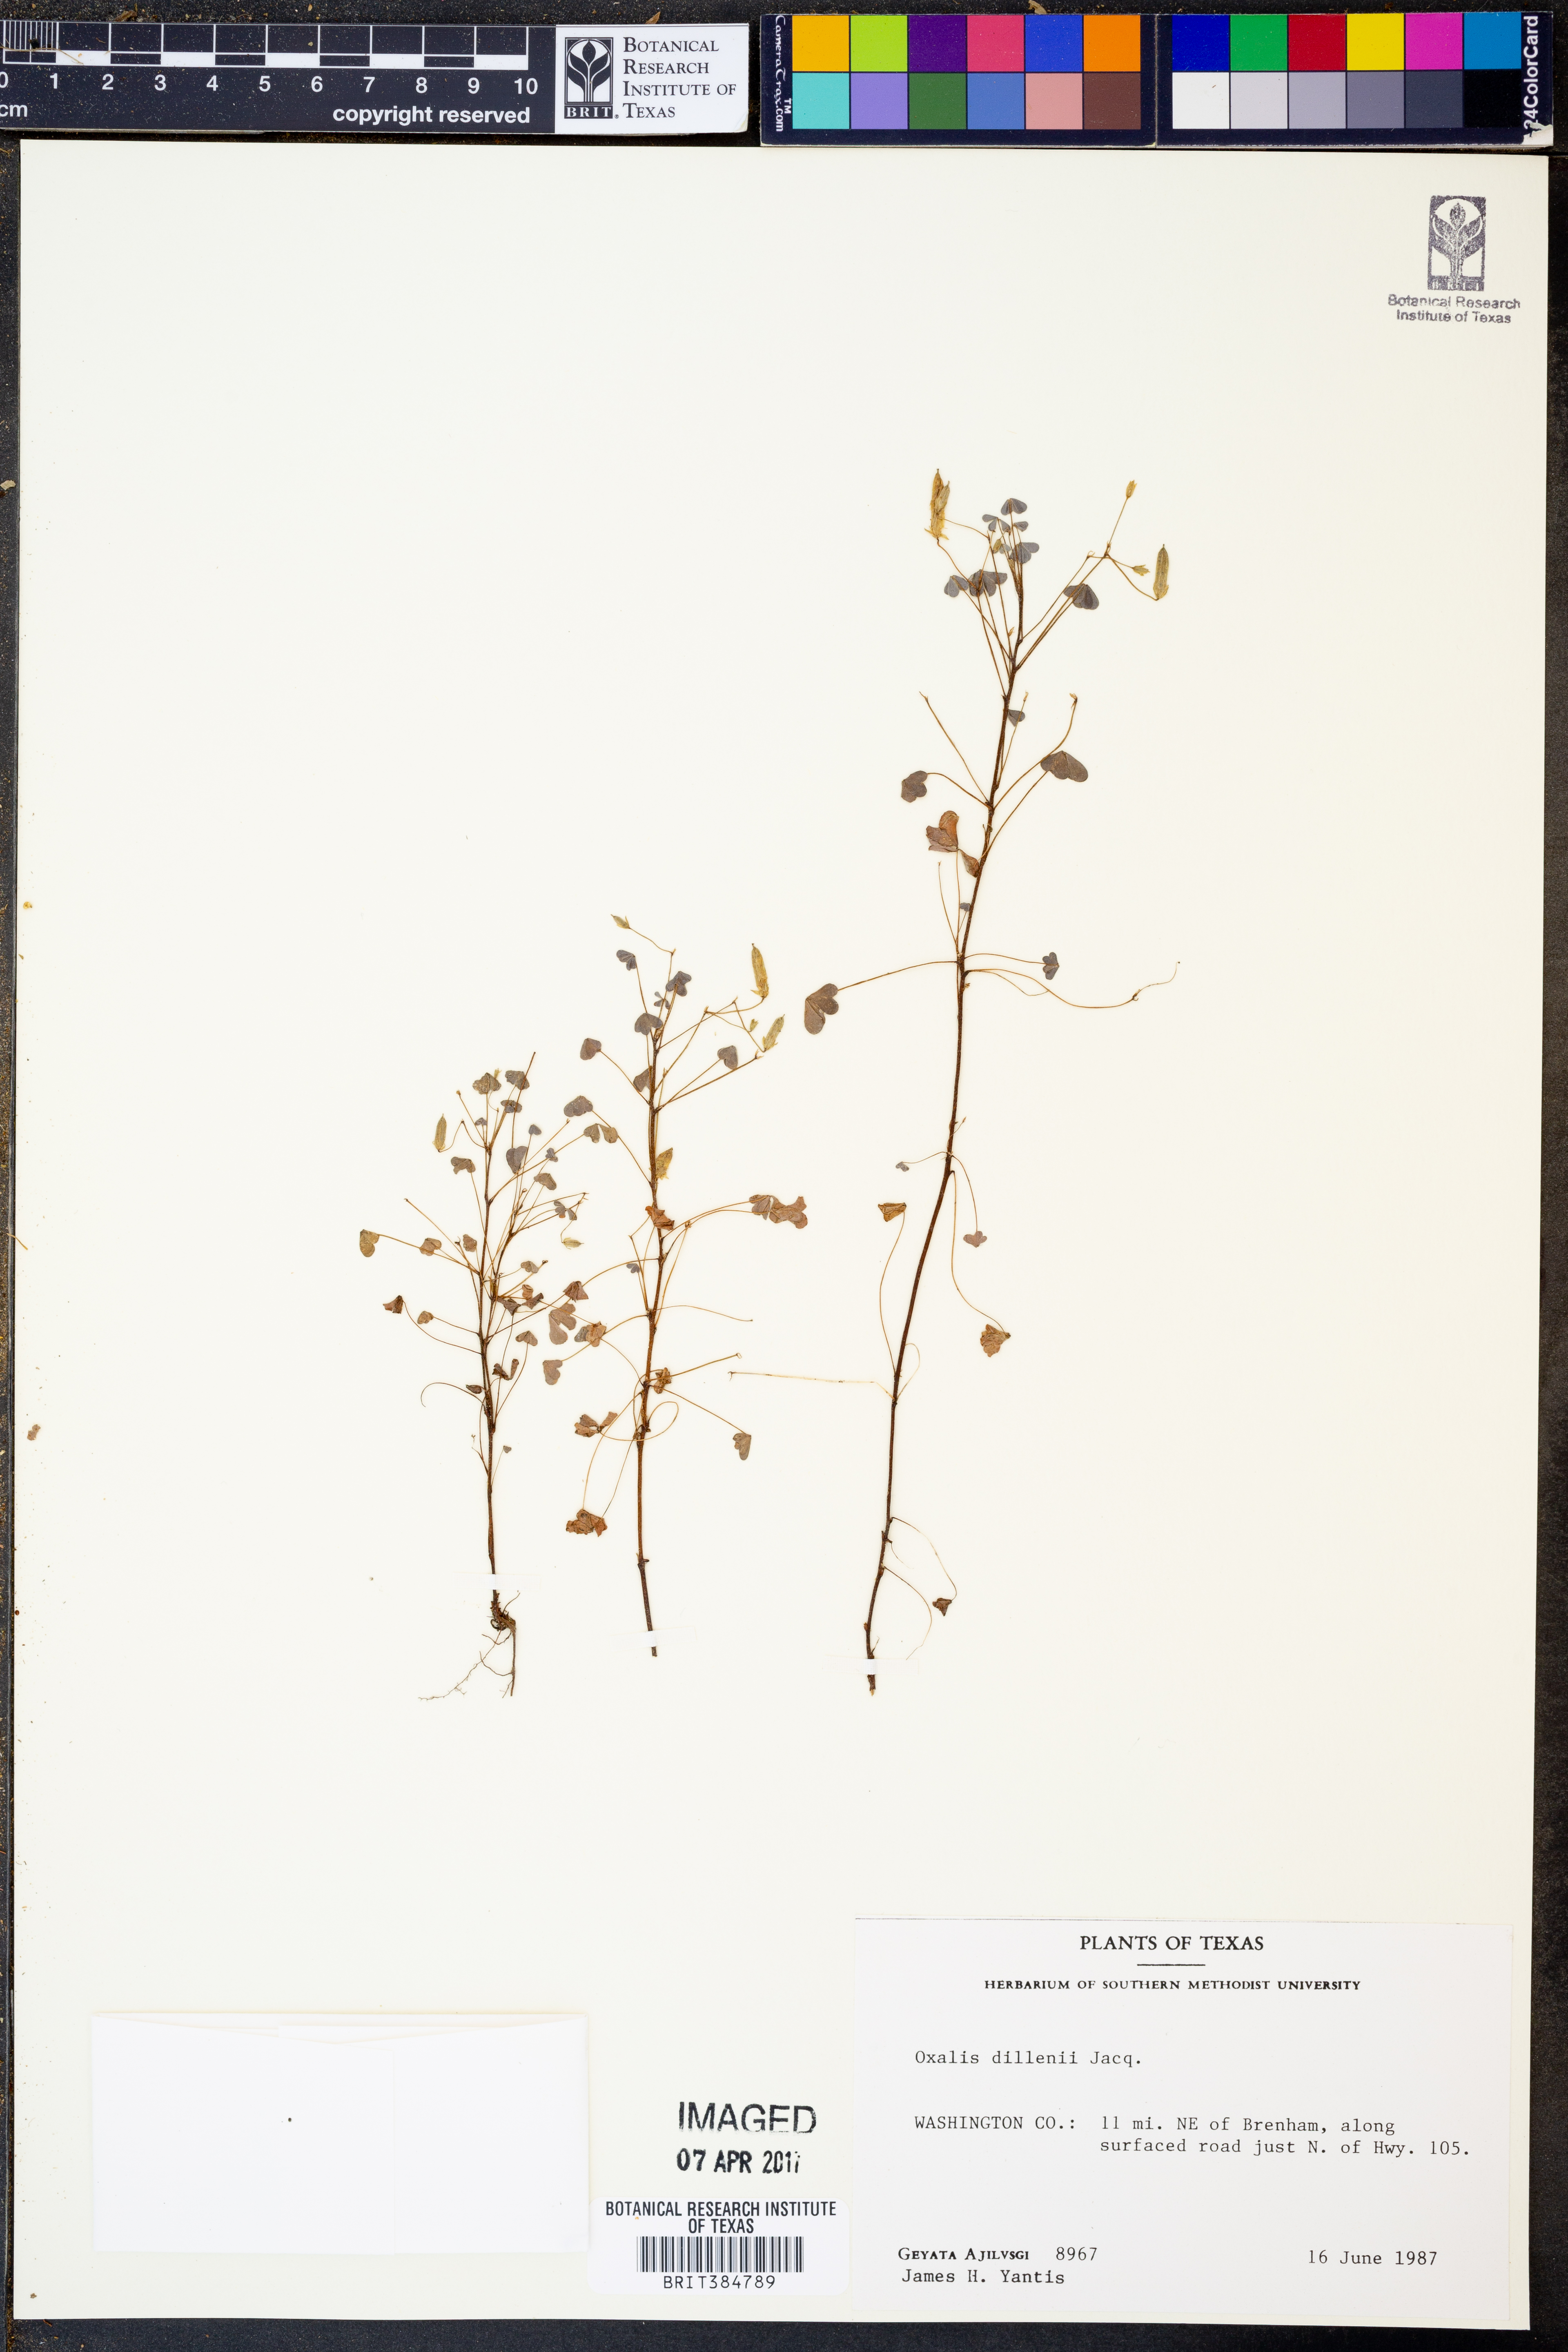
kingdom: Plantae
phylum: Tracheophyta
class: Magnoliopsida
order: Oxalidales
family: Oxalidaceae
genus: Oxalis
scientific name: Oxalis dillenii
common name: Sussex yellow-sorrel
